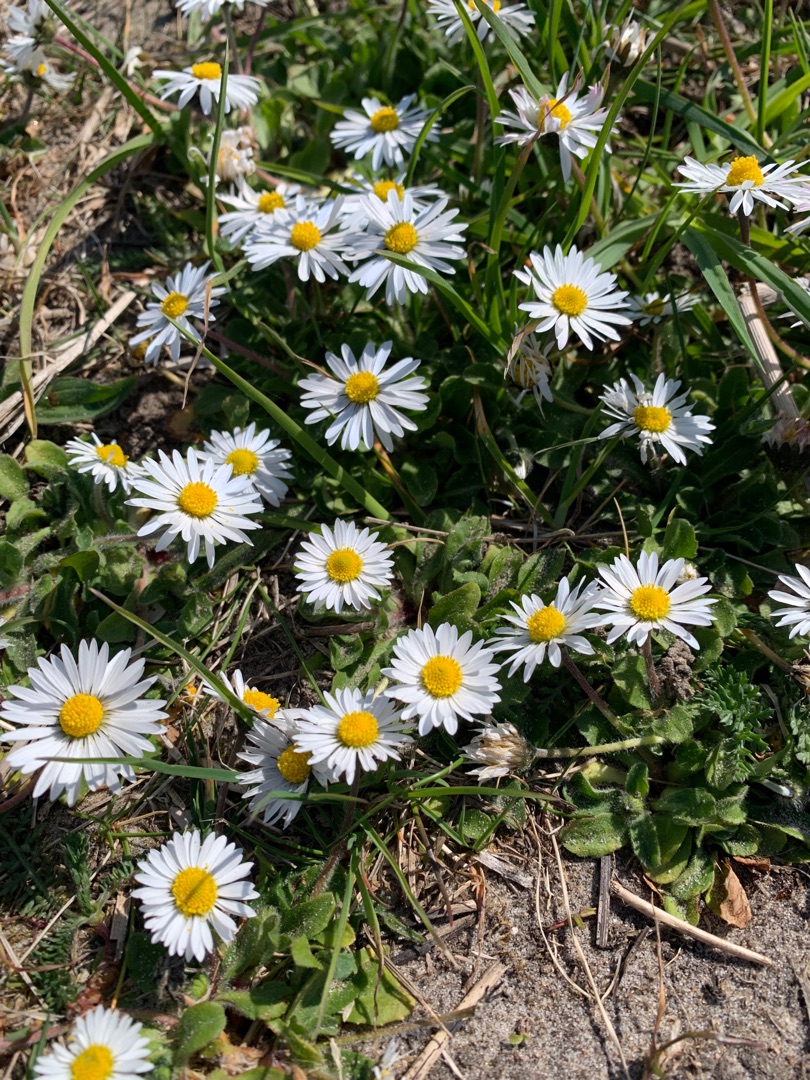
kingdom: Plantae
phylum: Tracheophyta
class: Magnoliopsida
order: Asterales
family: Asteraceae
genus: Bellis
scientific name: Bellis perennis
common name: Tusindfryd
